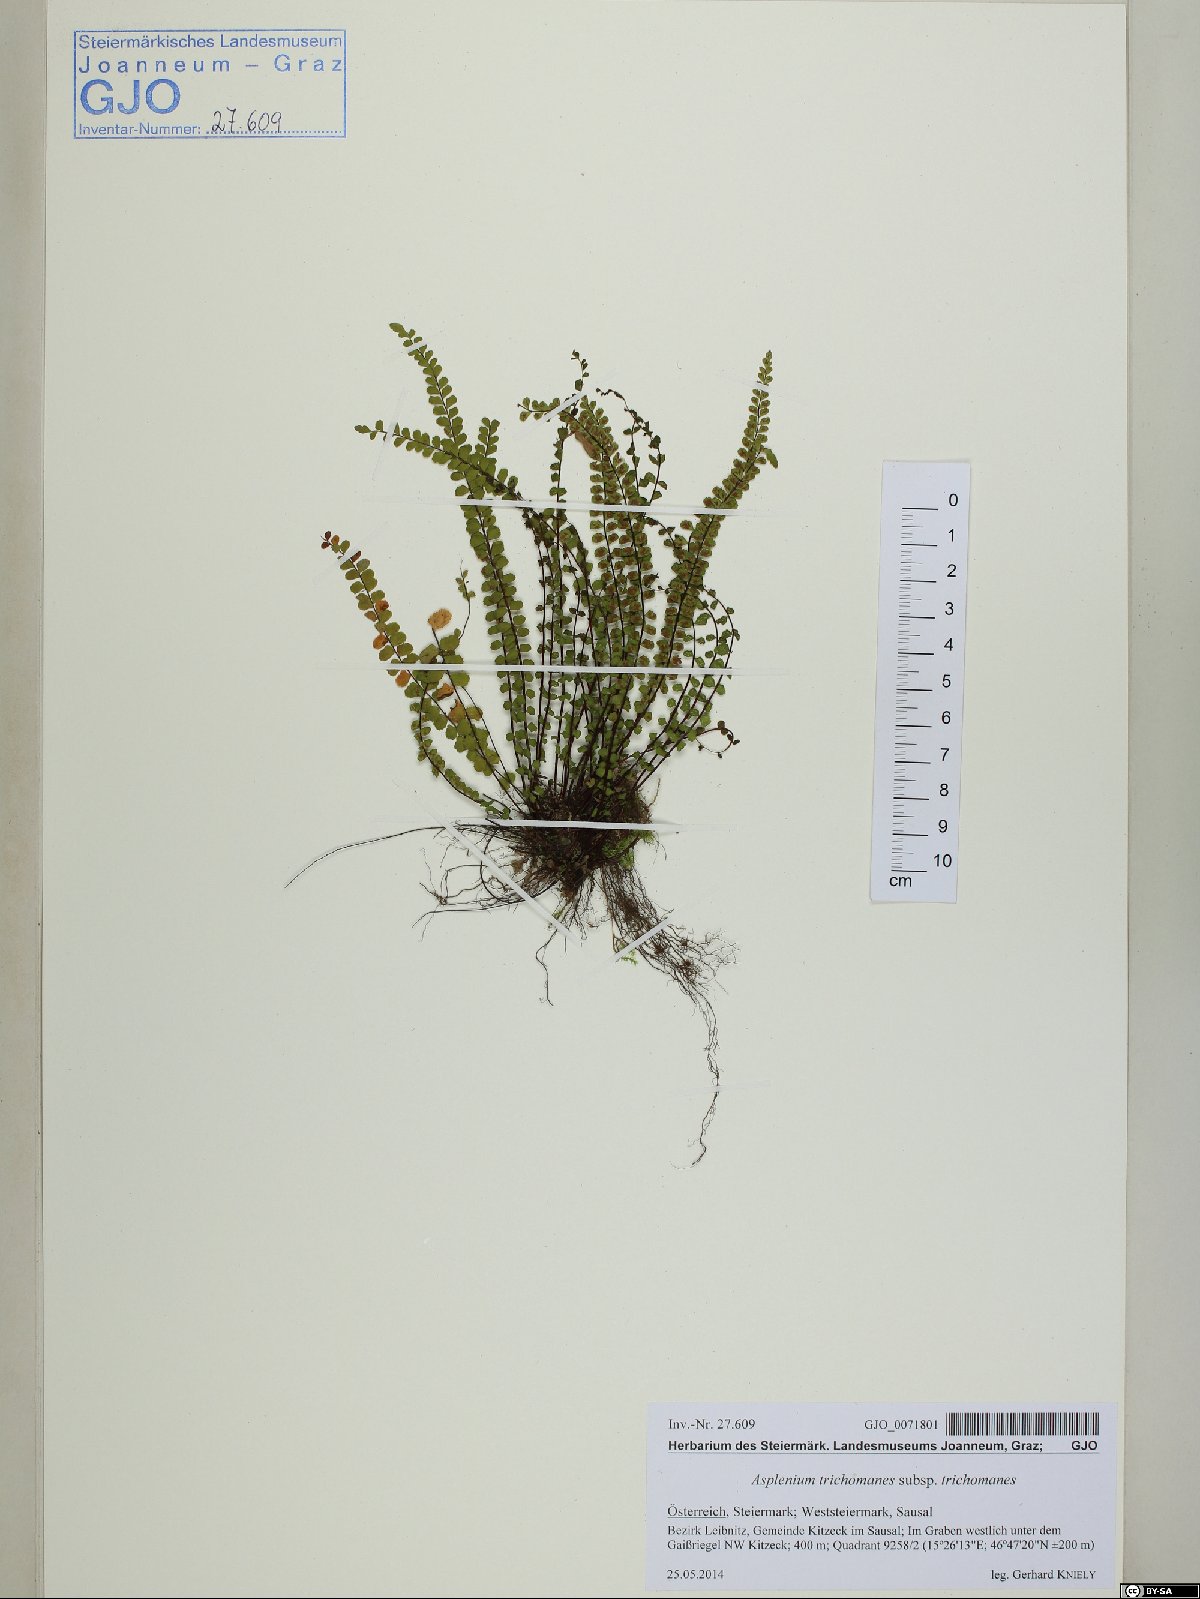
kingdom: Plantae
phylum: Tracheophyta
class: Polypodiopsida
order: Polypodiales
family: Aspleniaceae
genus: Asplenium
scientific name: Asplenium trichomanes
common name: Maidenhair spleenwort
